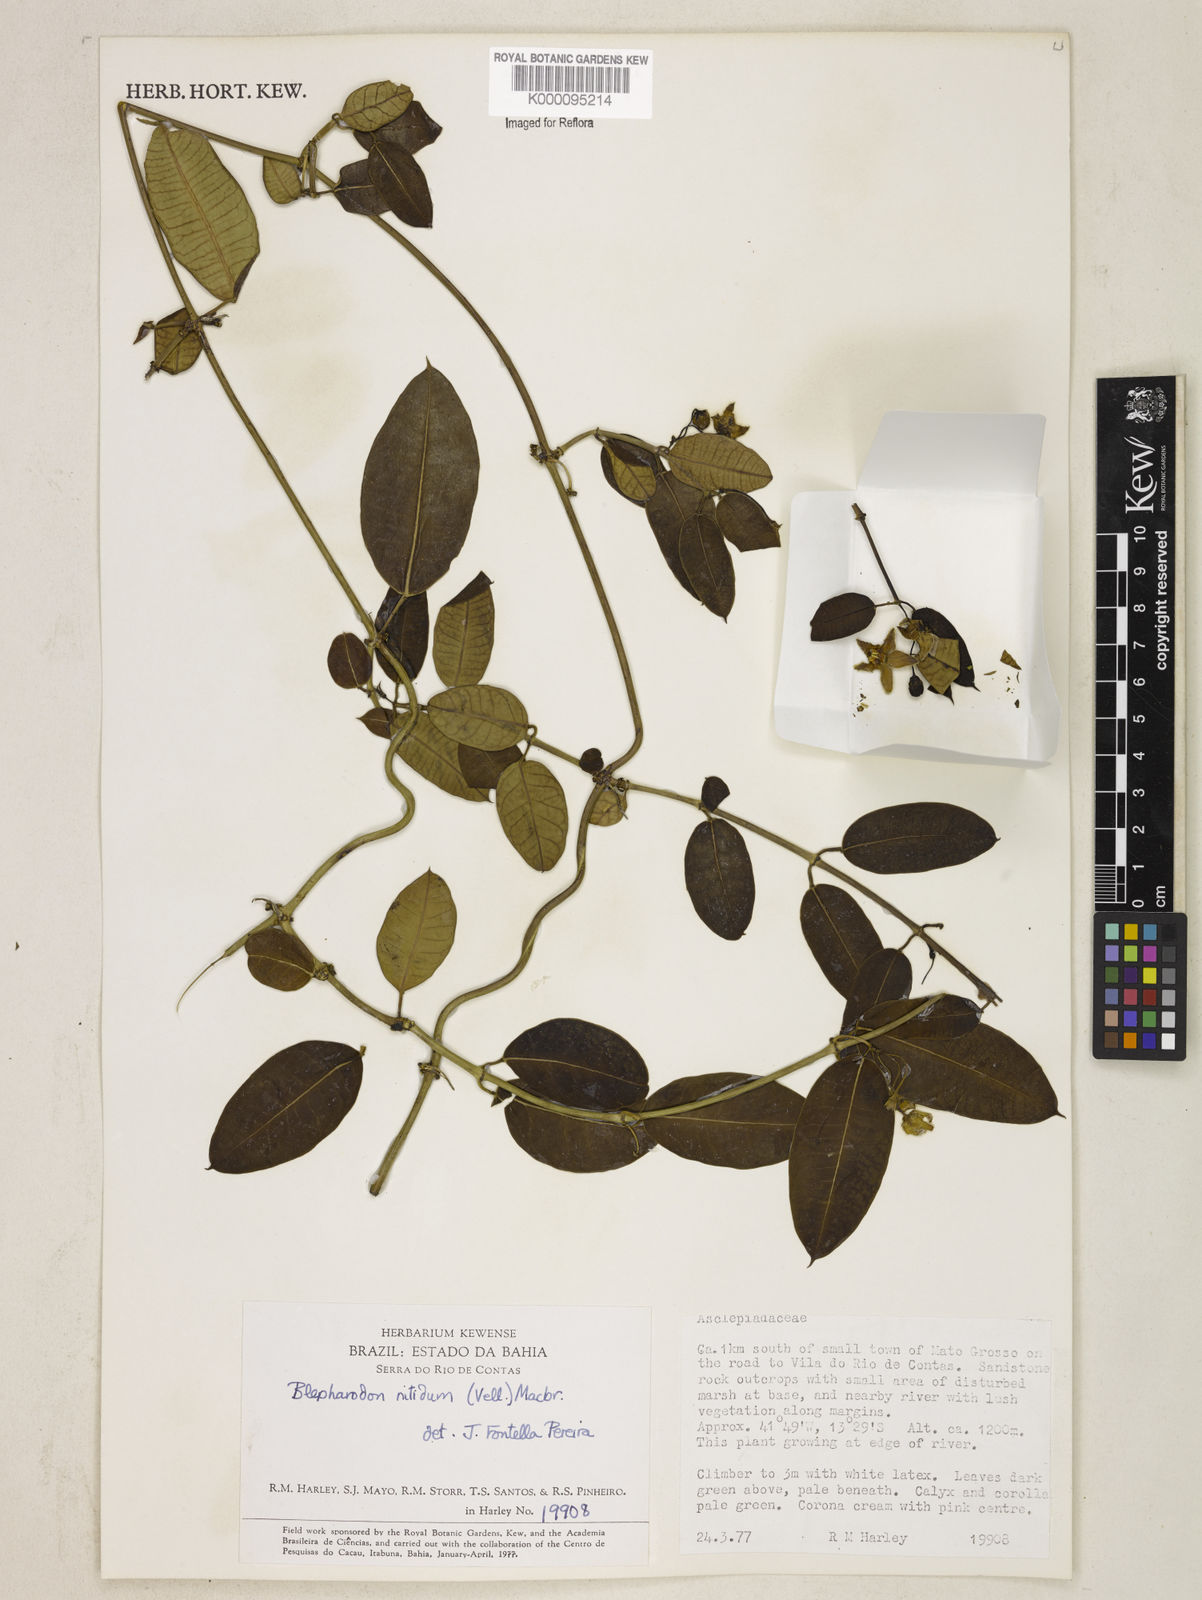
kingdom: Plantae
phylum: Tracheophyta
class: Magnoliopsida
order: Gentianales
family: Apocynaceae
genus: Blepharodon
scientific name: Blepharodon pictum
